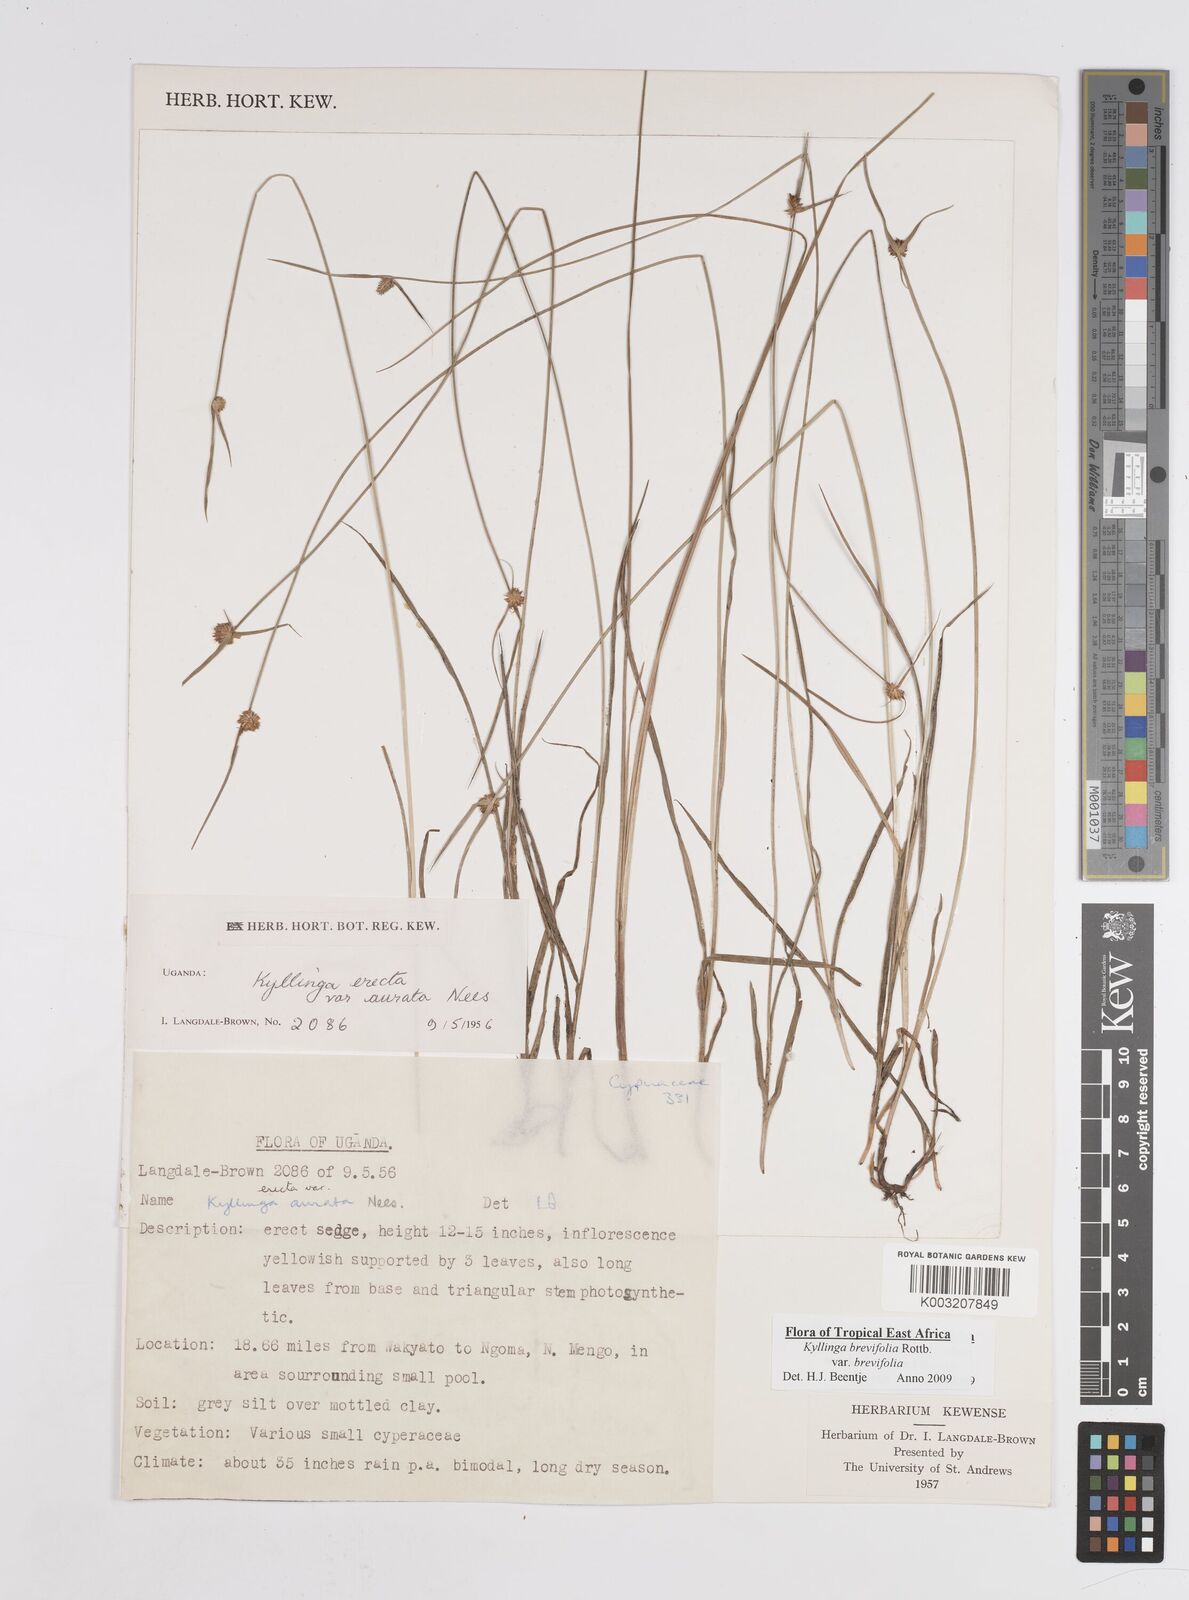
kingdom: Plantae
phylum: Tracheophyta
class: Liliopsida
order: Poales
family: Cyperaceae
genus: Cyperus
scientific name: Cyperus erectus
